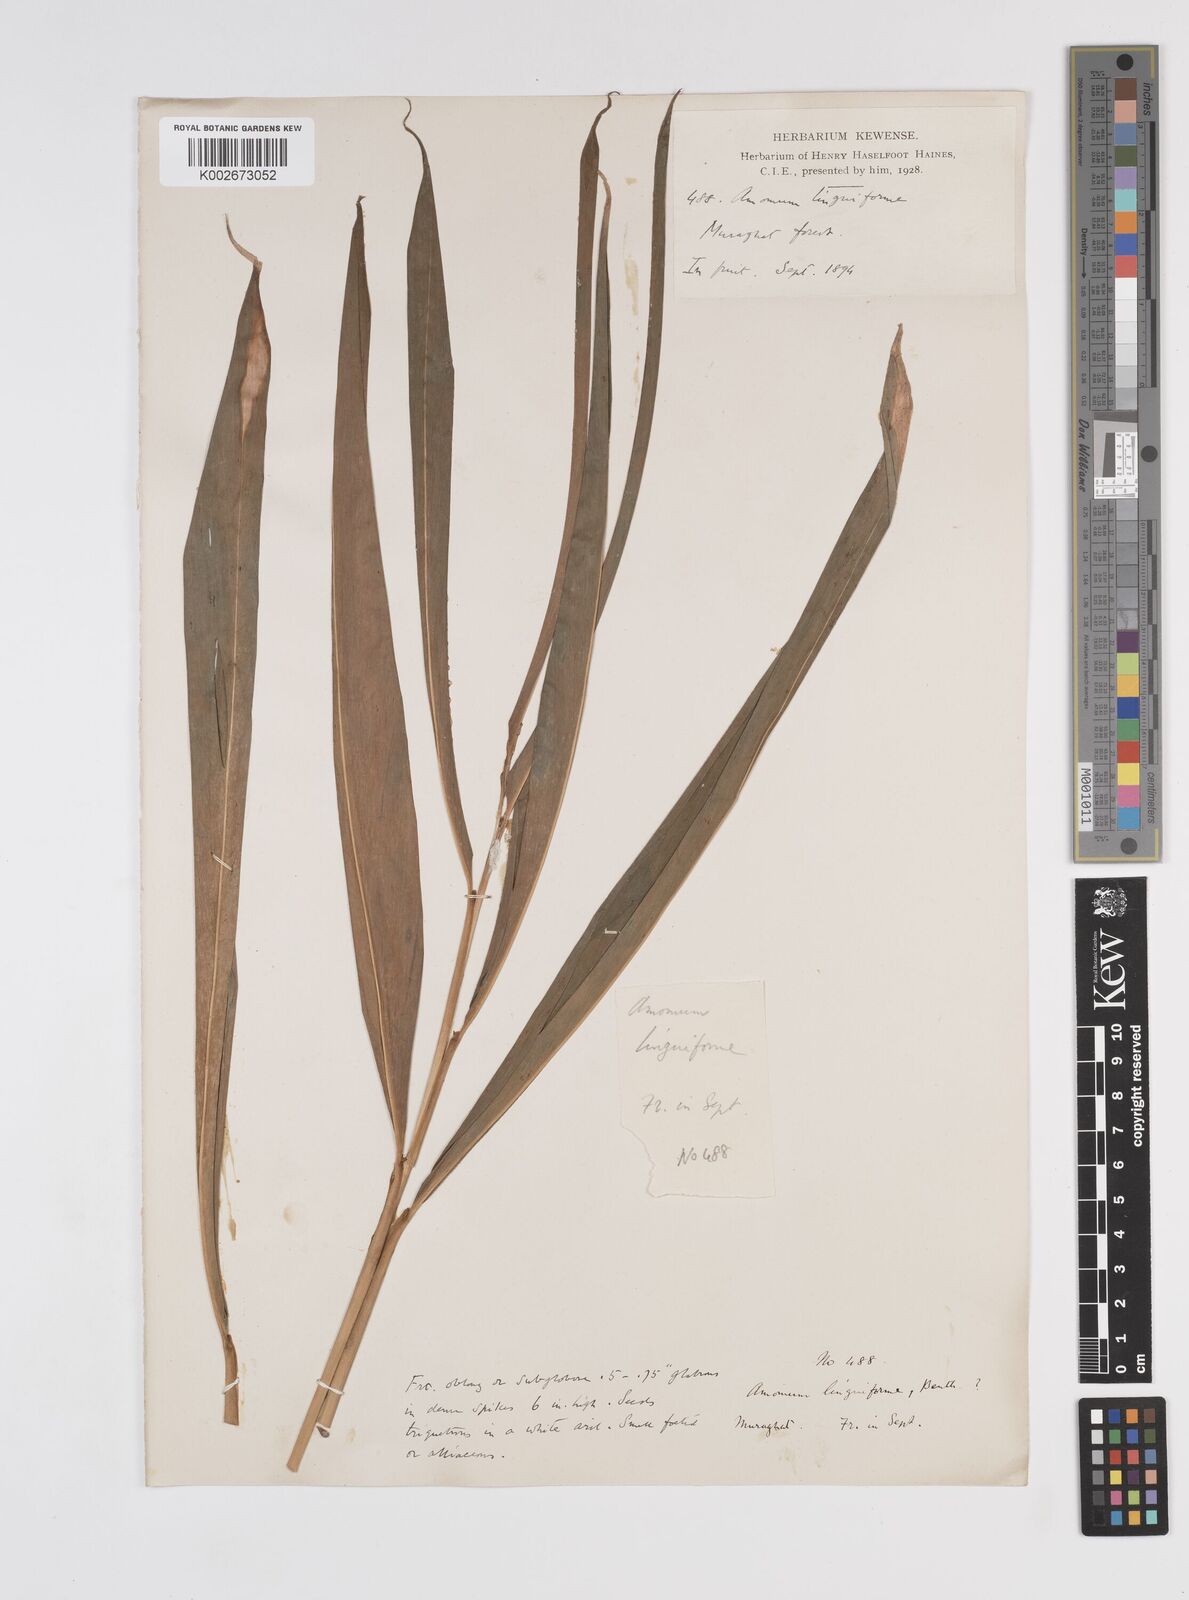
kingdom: Plantae
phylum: Tracheophyta
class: Liliopsida
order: Zingiberales
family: Zingiberaceae
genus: Amomum
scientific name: Amomum subulatum
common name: Black cardamom
